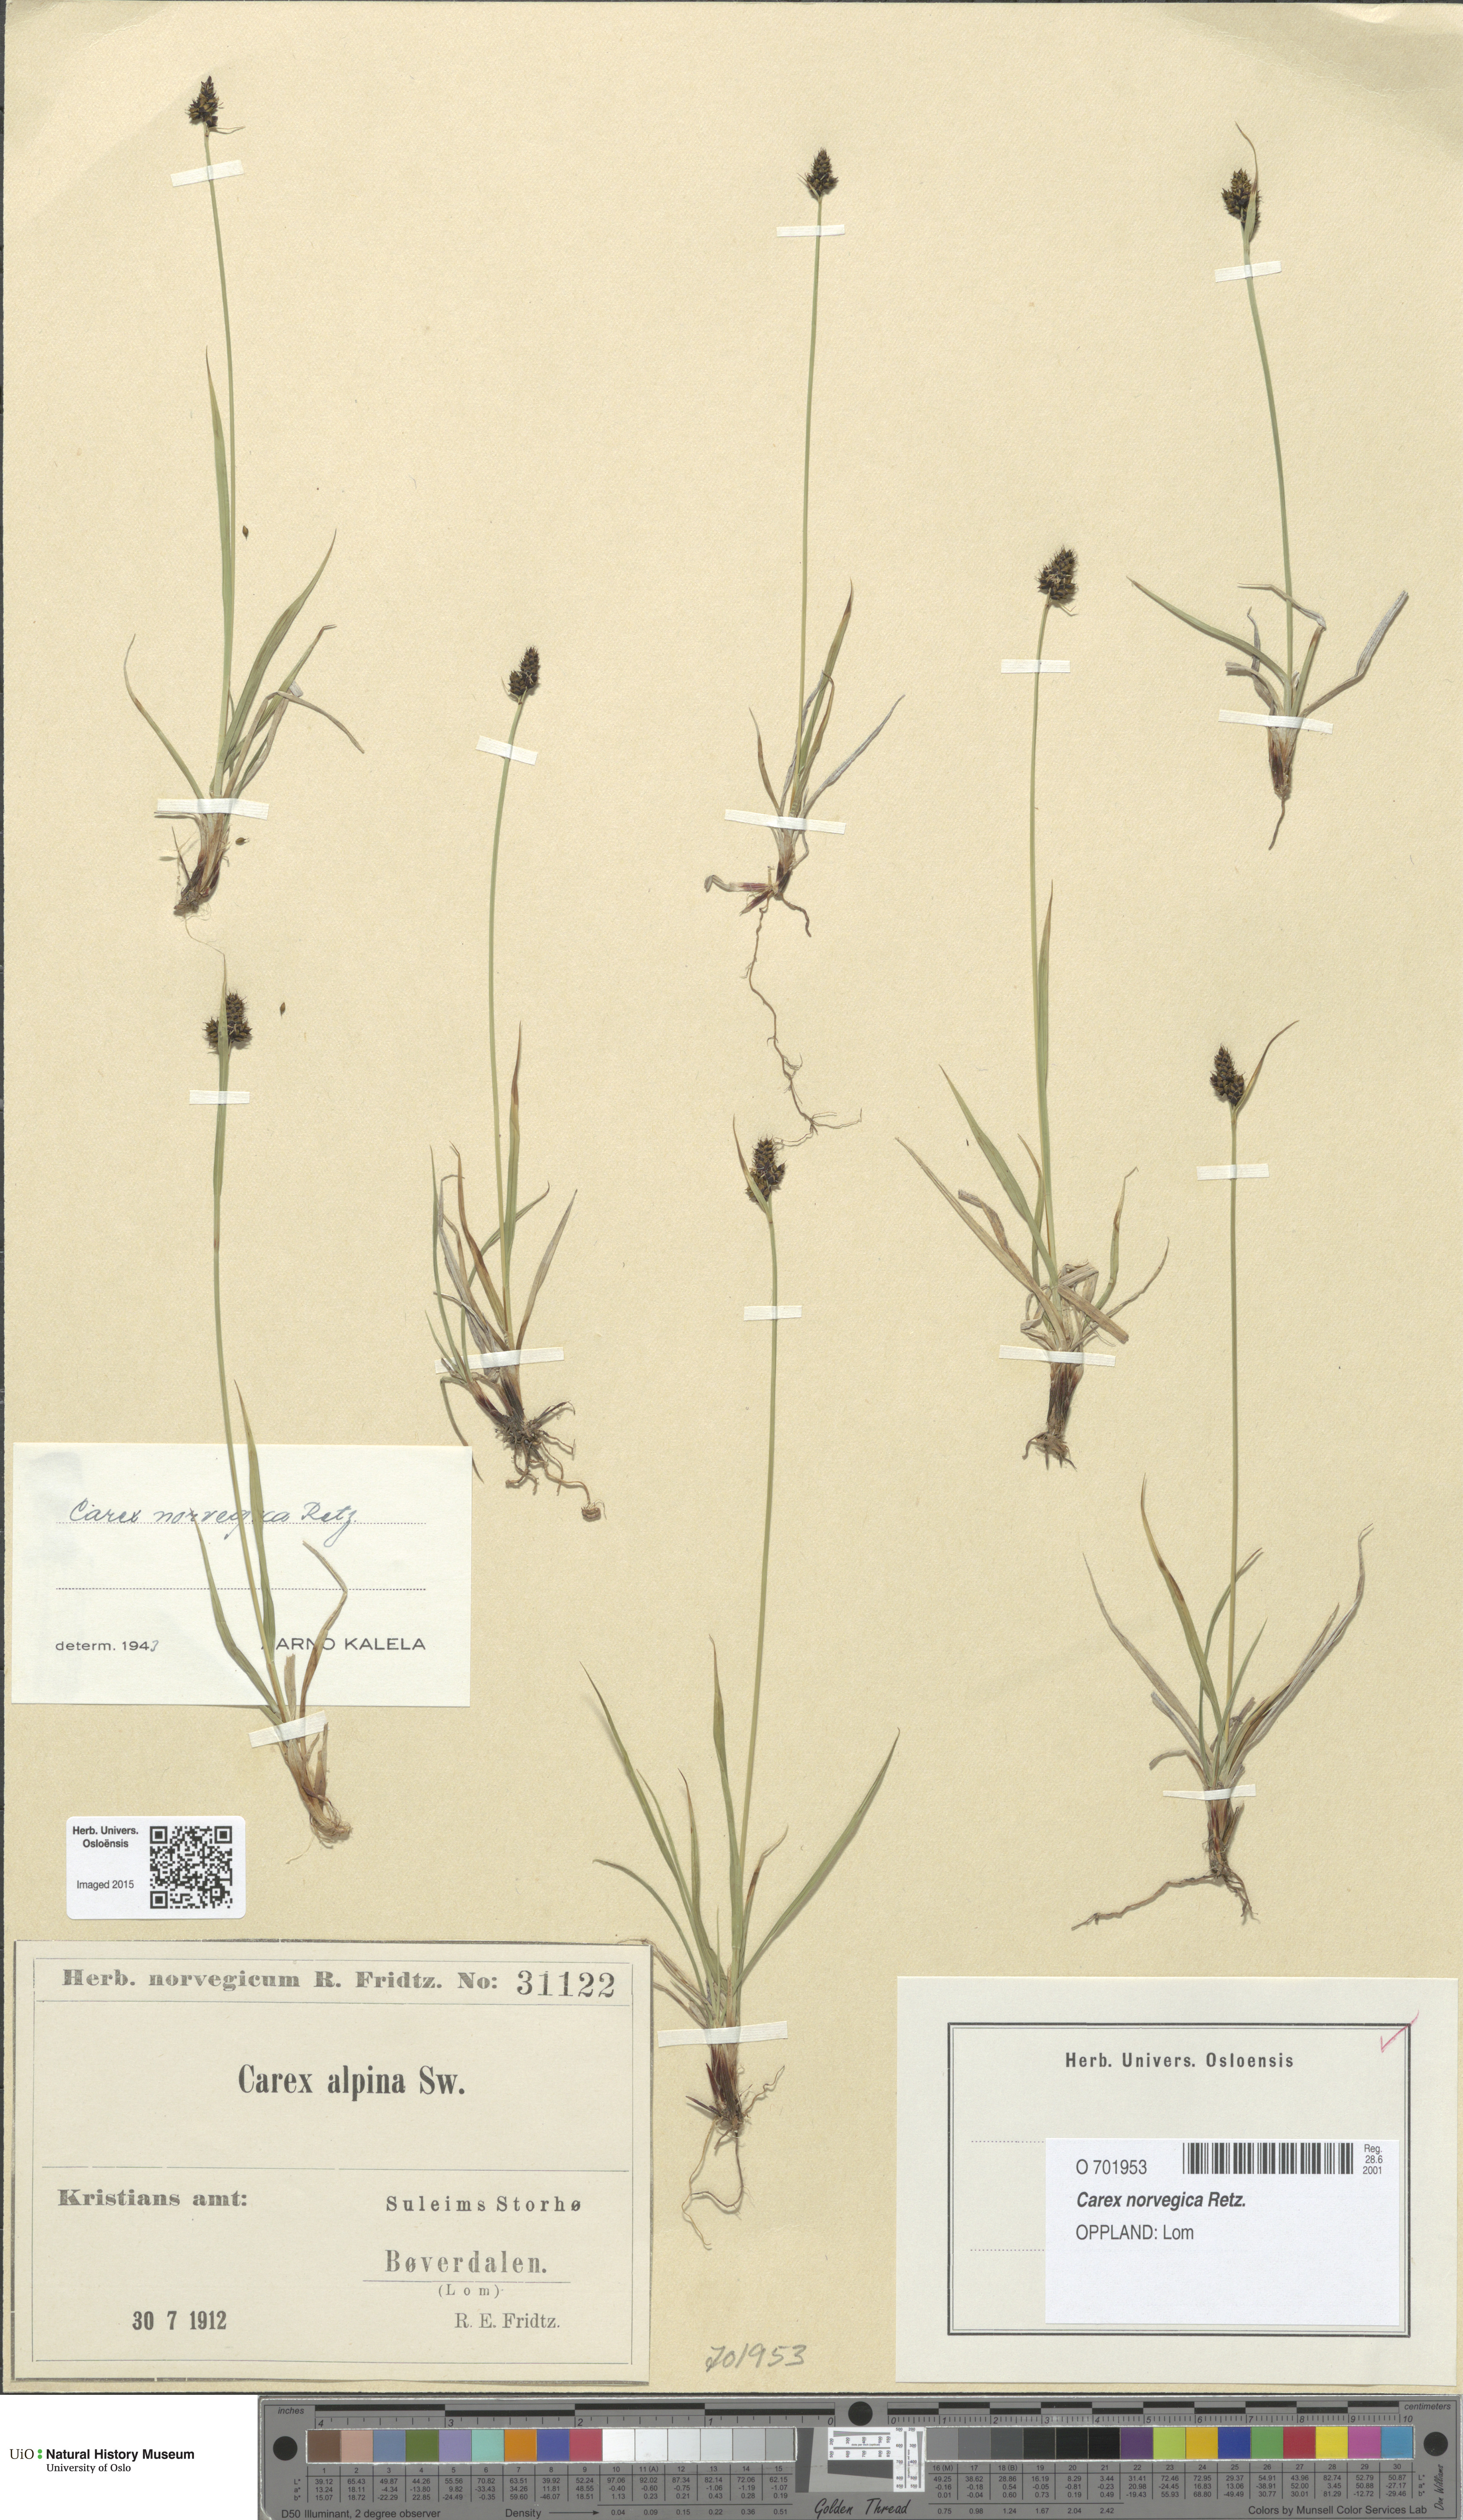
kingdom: Plantae
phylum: Tracheophyta
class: Liliopsida
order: Poales
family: Cyperaceae
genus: Carex
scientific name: Carex norvegica
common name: Close-headed alpine-sedge
